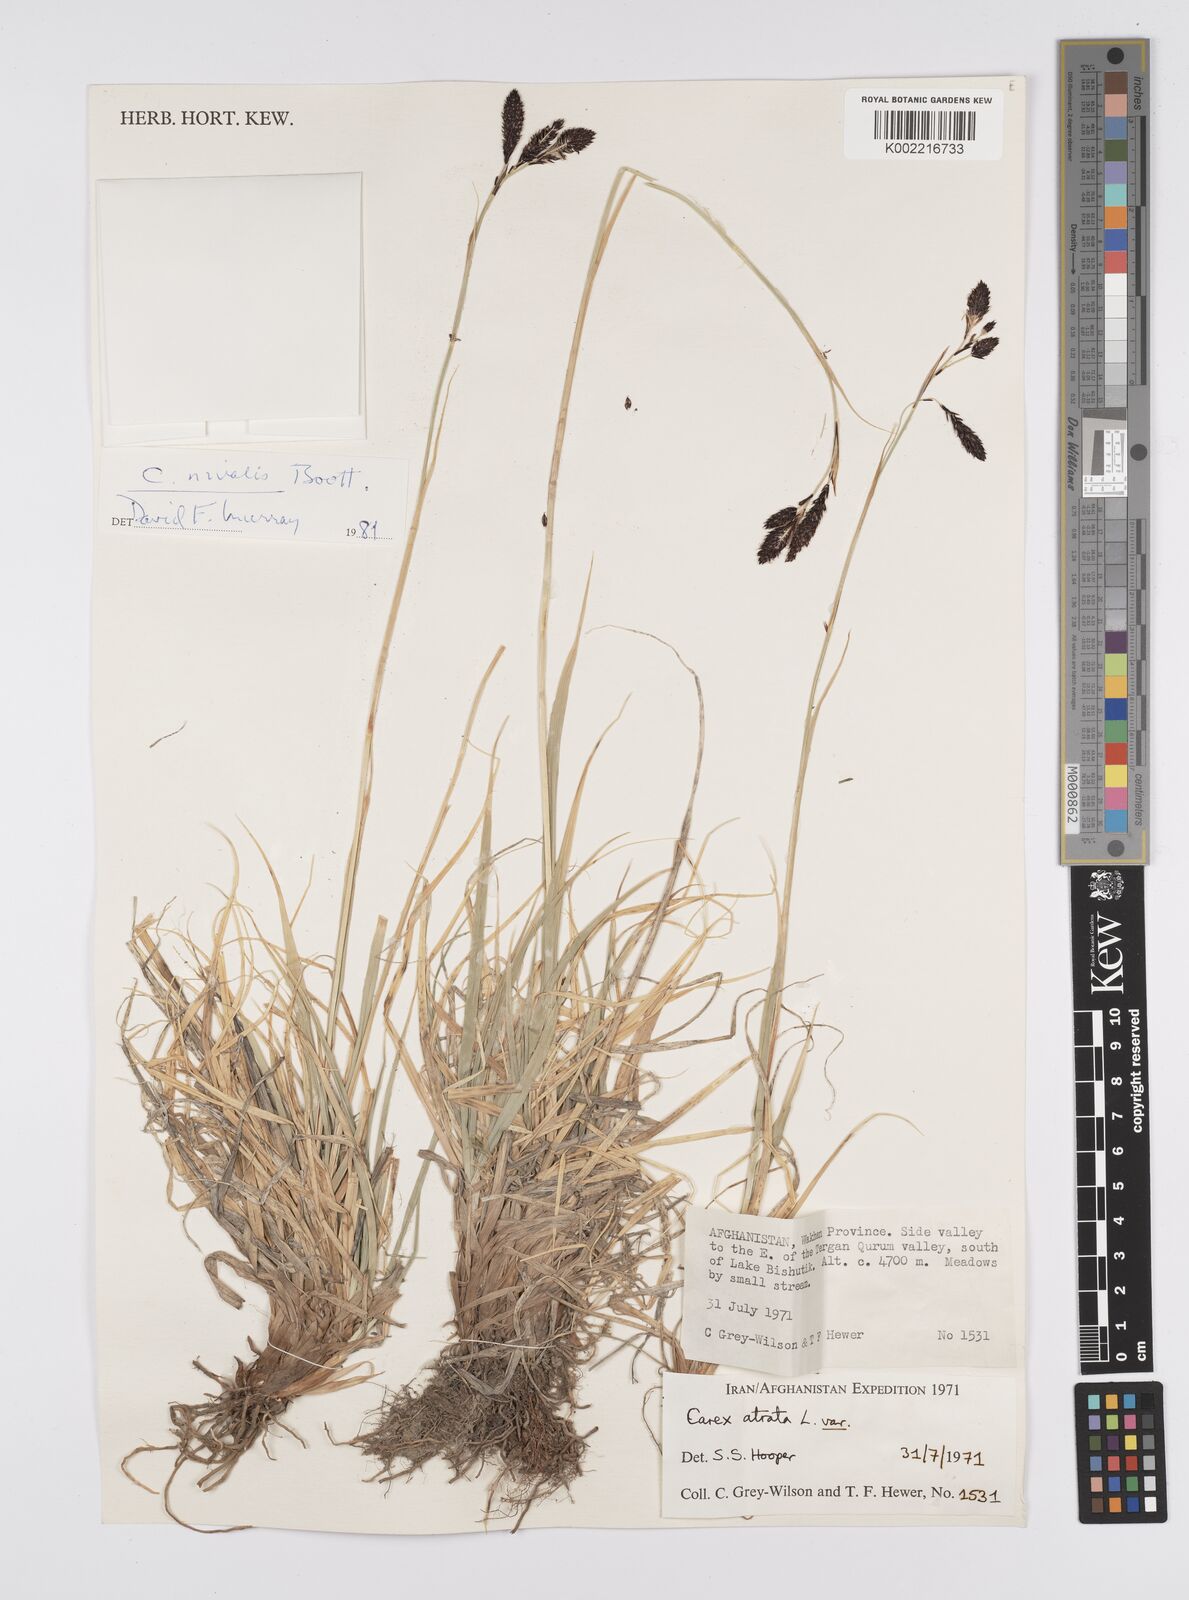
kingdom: Plantae
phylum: Tracheophyta
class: Liliopsida
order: Poales
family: Cyperaceae
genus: Carex
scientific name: Carex nivalis
